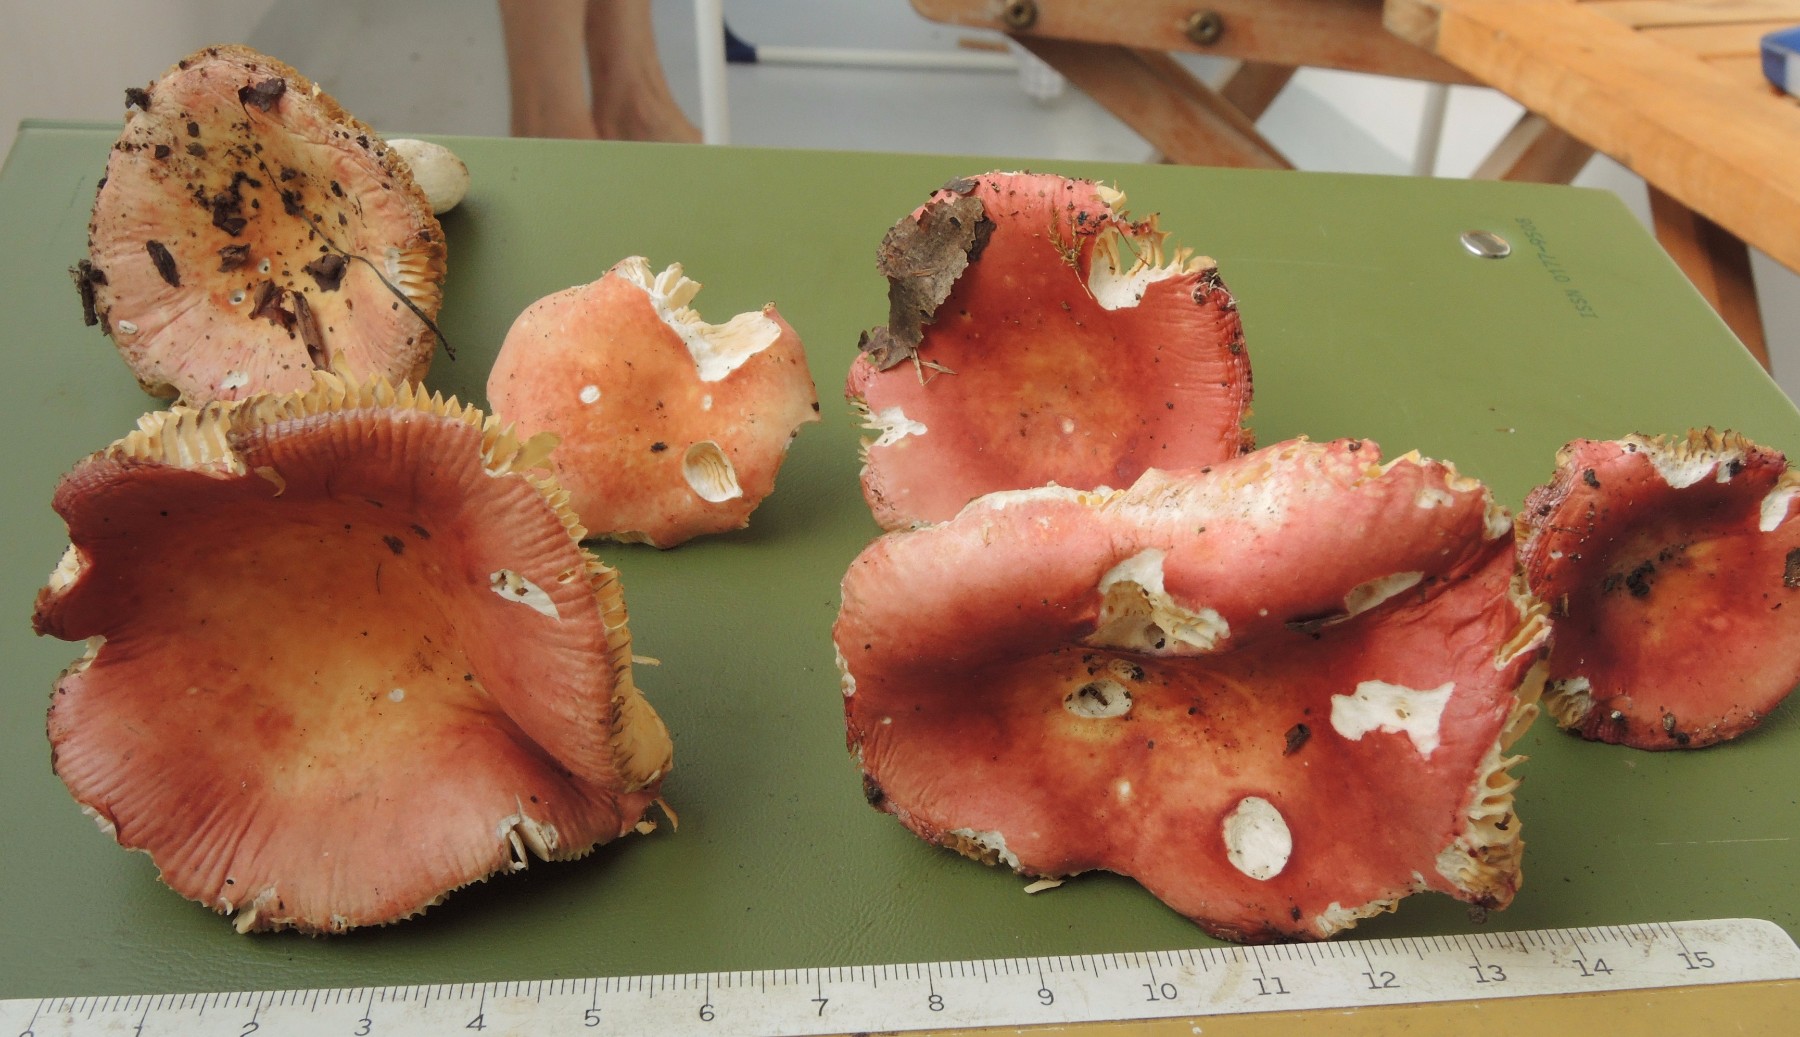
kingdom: Fungi
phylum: Basidiomycota
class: Agaricomycetes
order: Russulales
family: Russulaceae
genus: Russula
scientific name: Russula rutila
